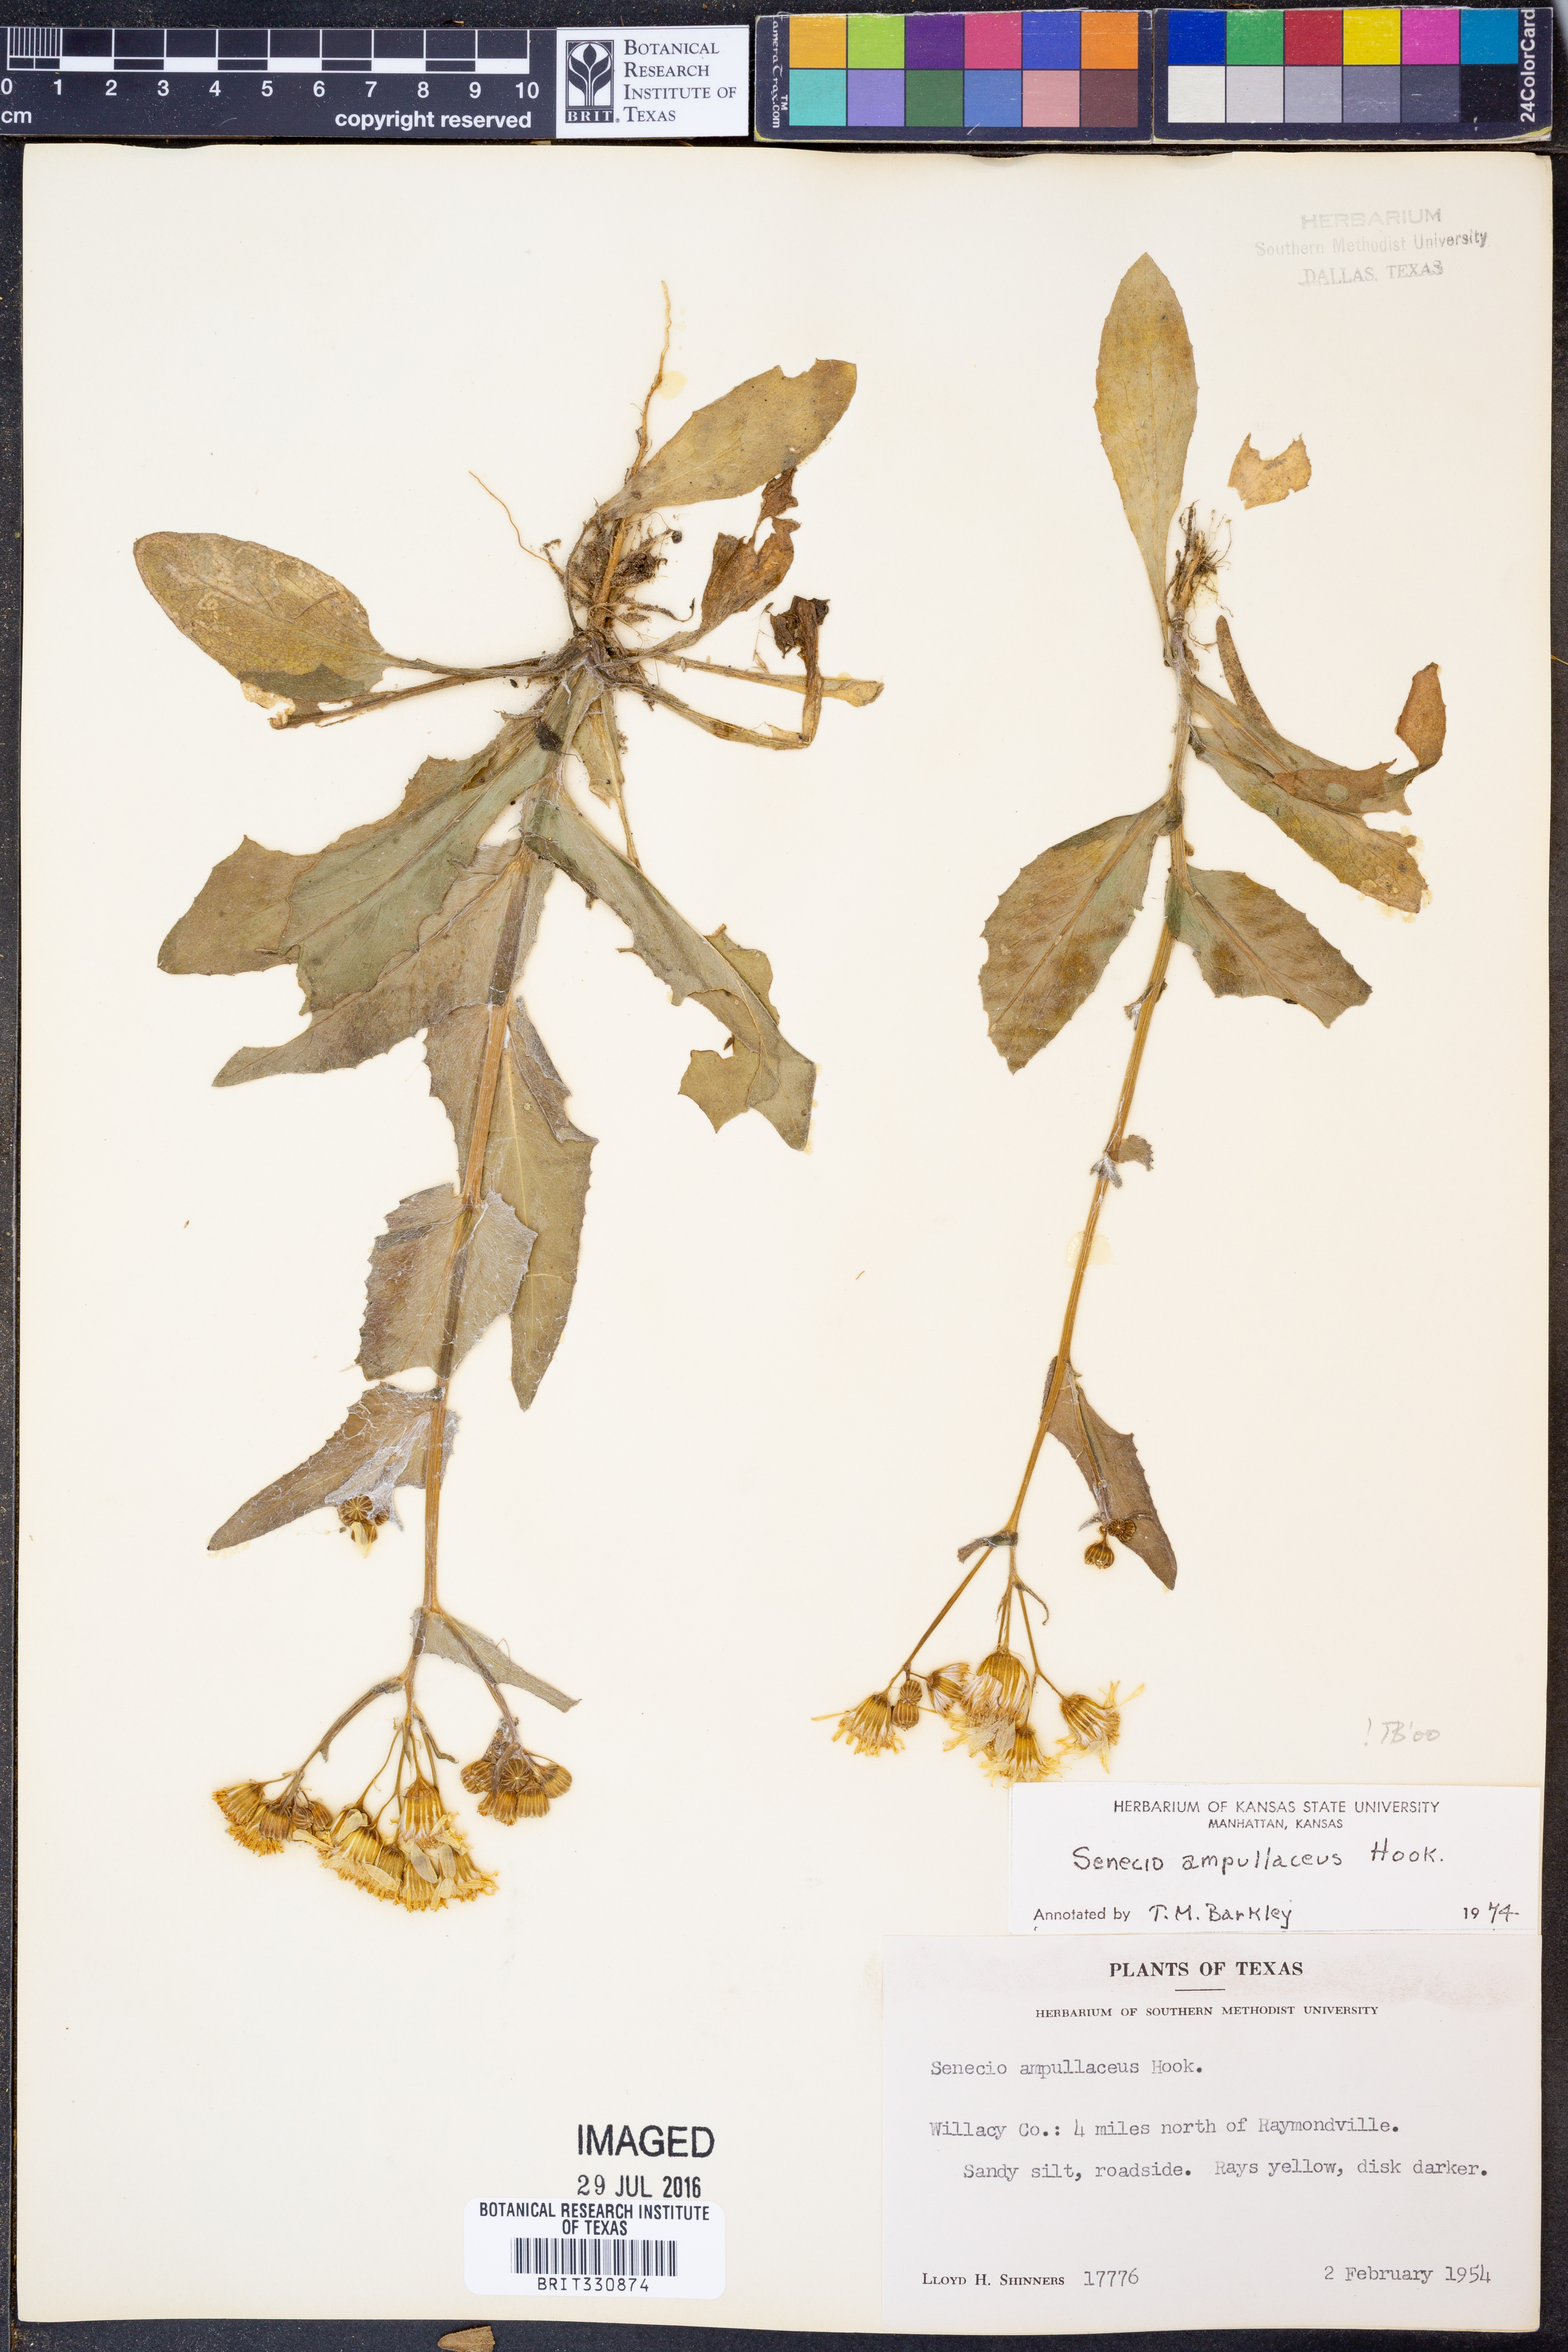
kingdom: Plantae
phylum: Tracheophyta
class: Magnoliopsida
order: Asterales
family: Asteraceae
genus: Senecio
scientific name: Senecio ampullaceus
